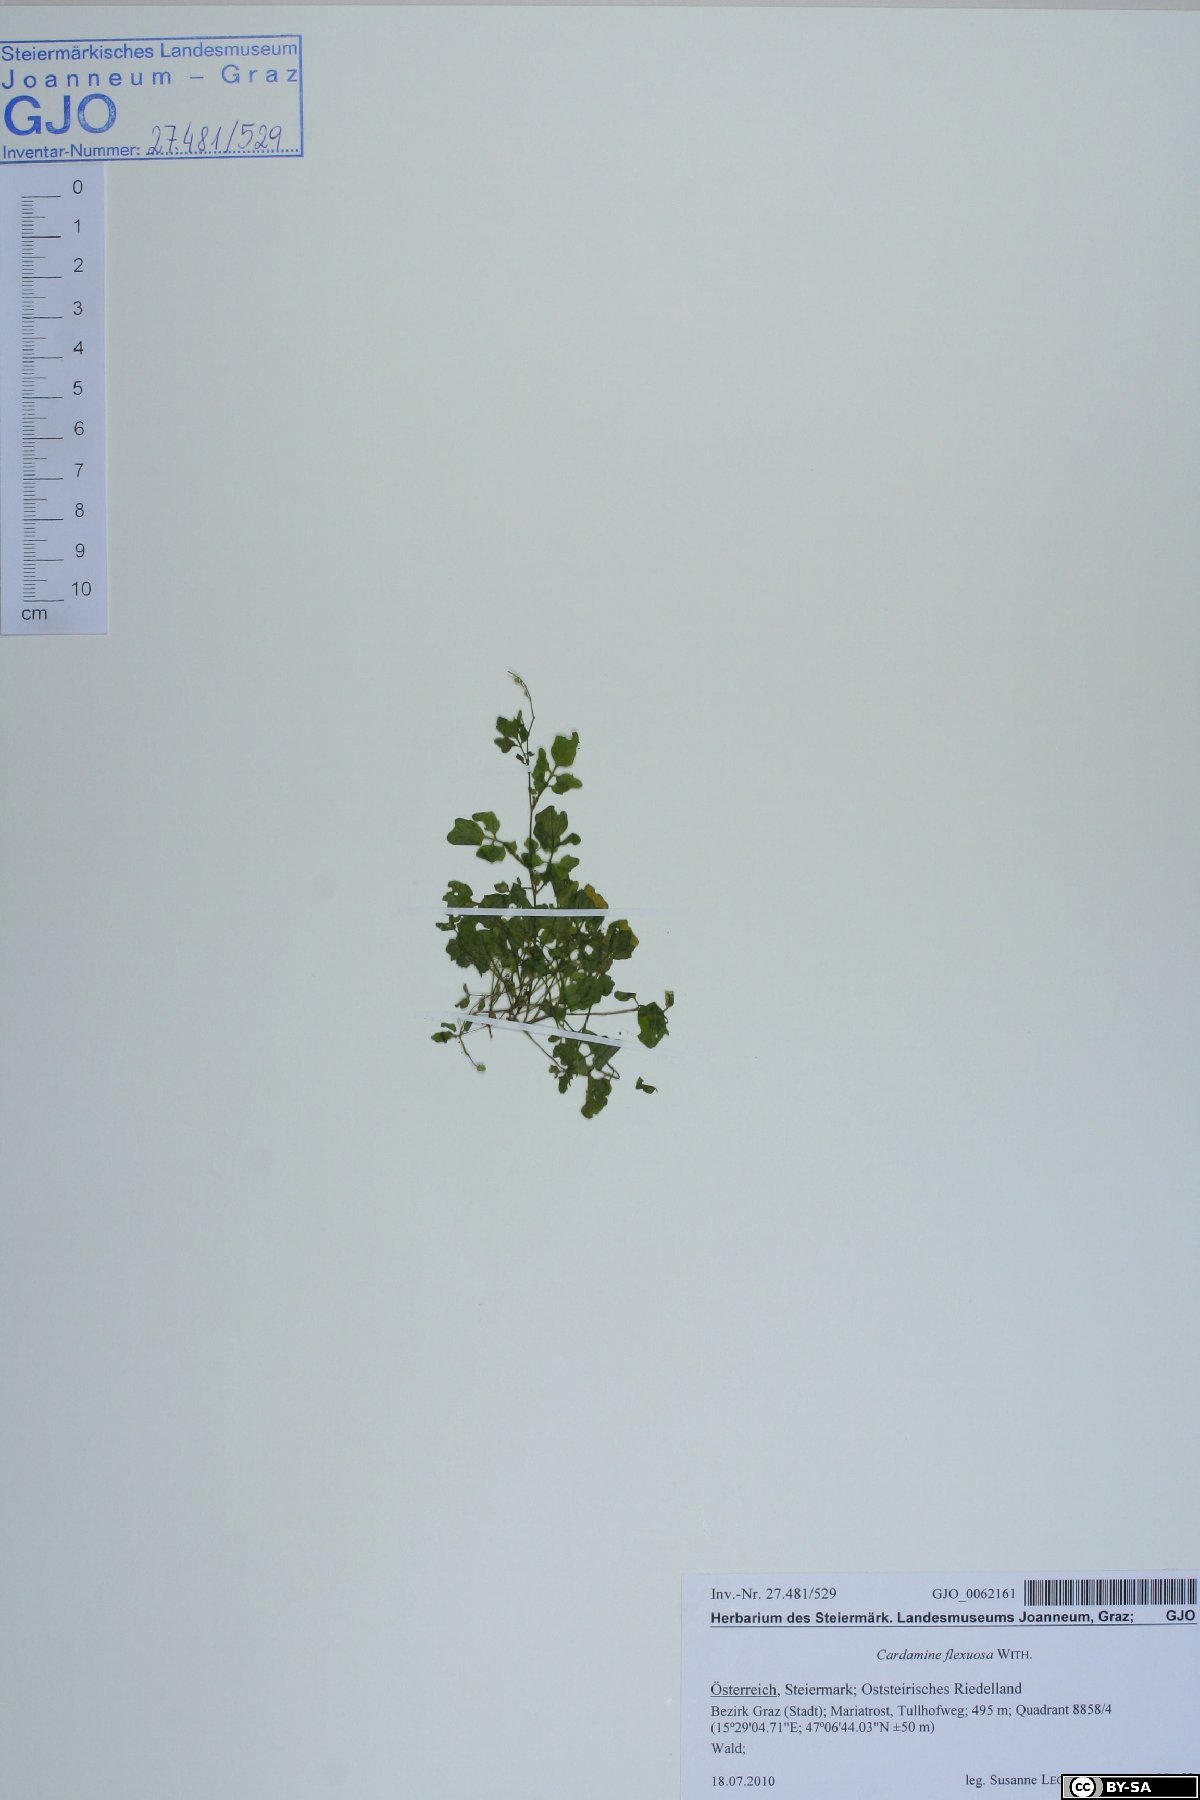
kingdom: Plantae
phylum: Tracheophyta
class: Magnoliopsida
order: Brassicales
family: Brassicaceae
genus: Cardamine
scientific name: Cardamine flexuosa
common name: Woodland bittercress
